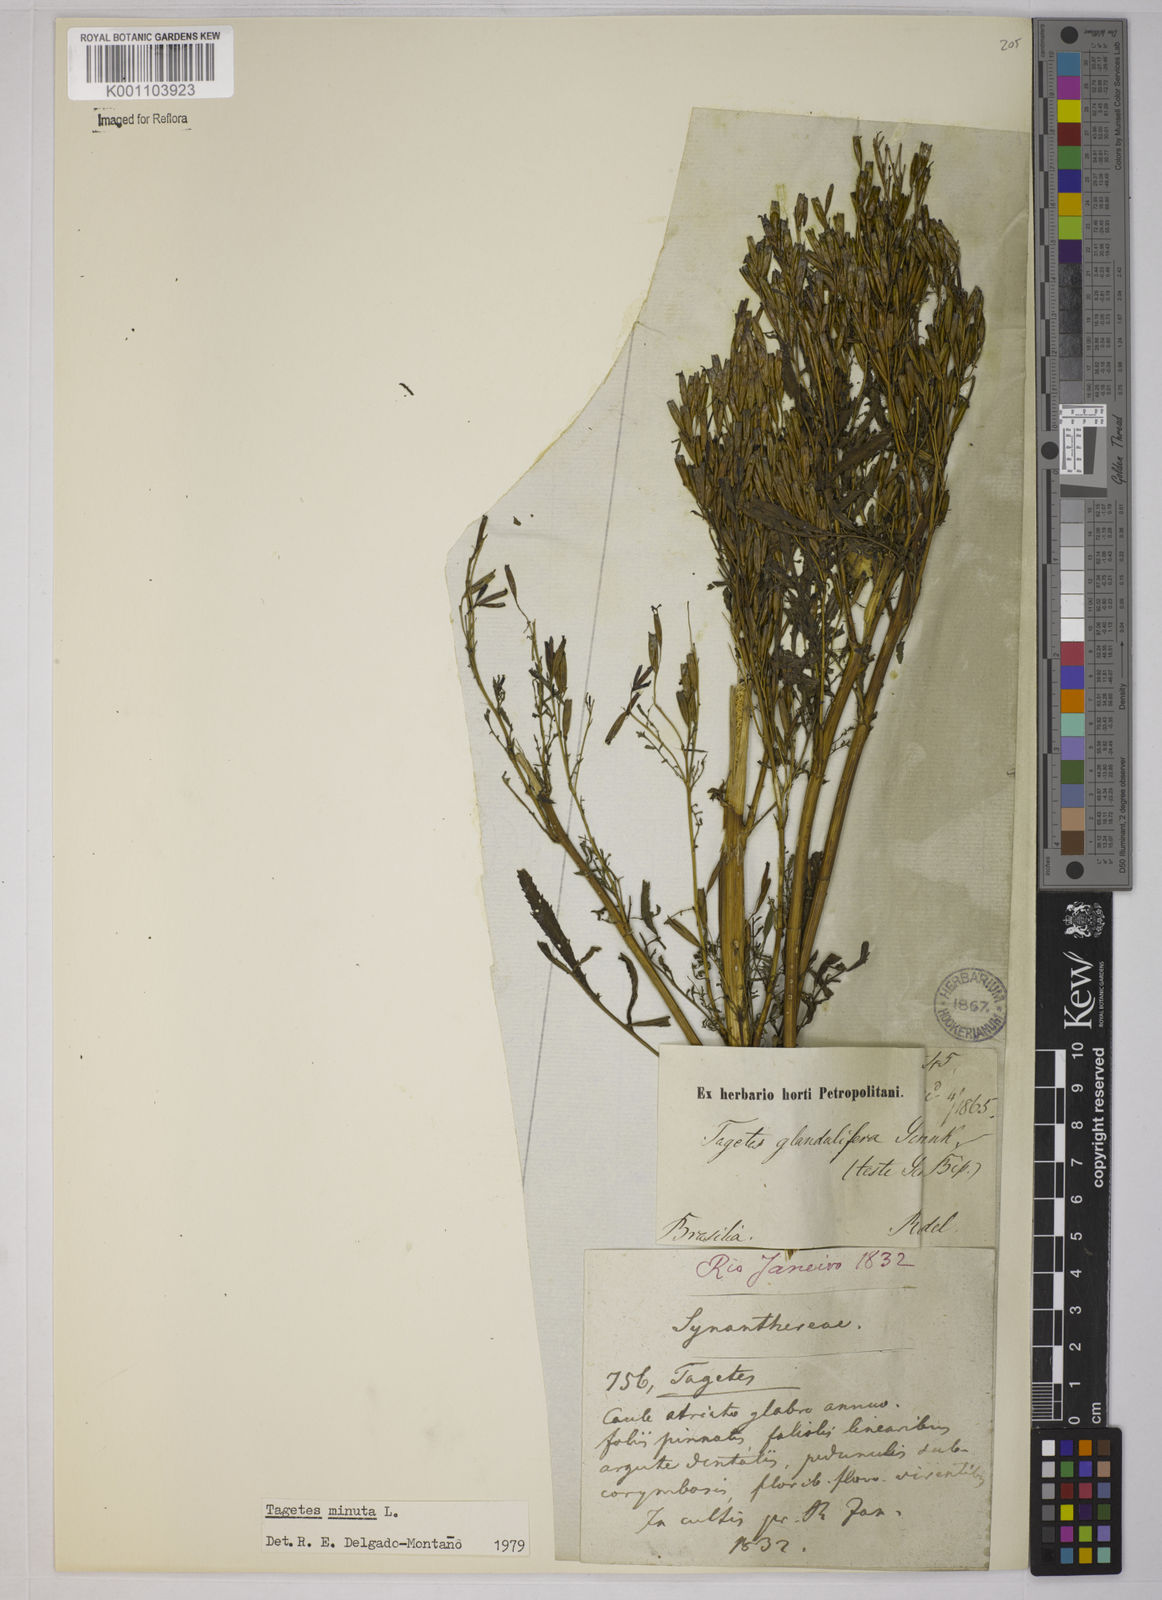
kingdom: Plantae
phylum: Tracheophyta
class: Magnoliopsida
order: Asterales
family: Asteraceae
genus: Tagetes
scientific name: Tagetes minuta
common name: Muster john henry
